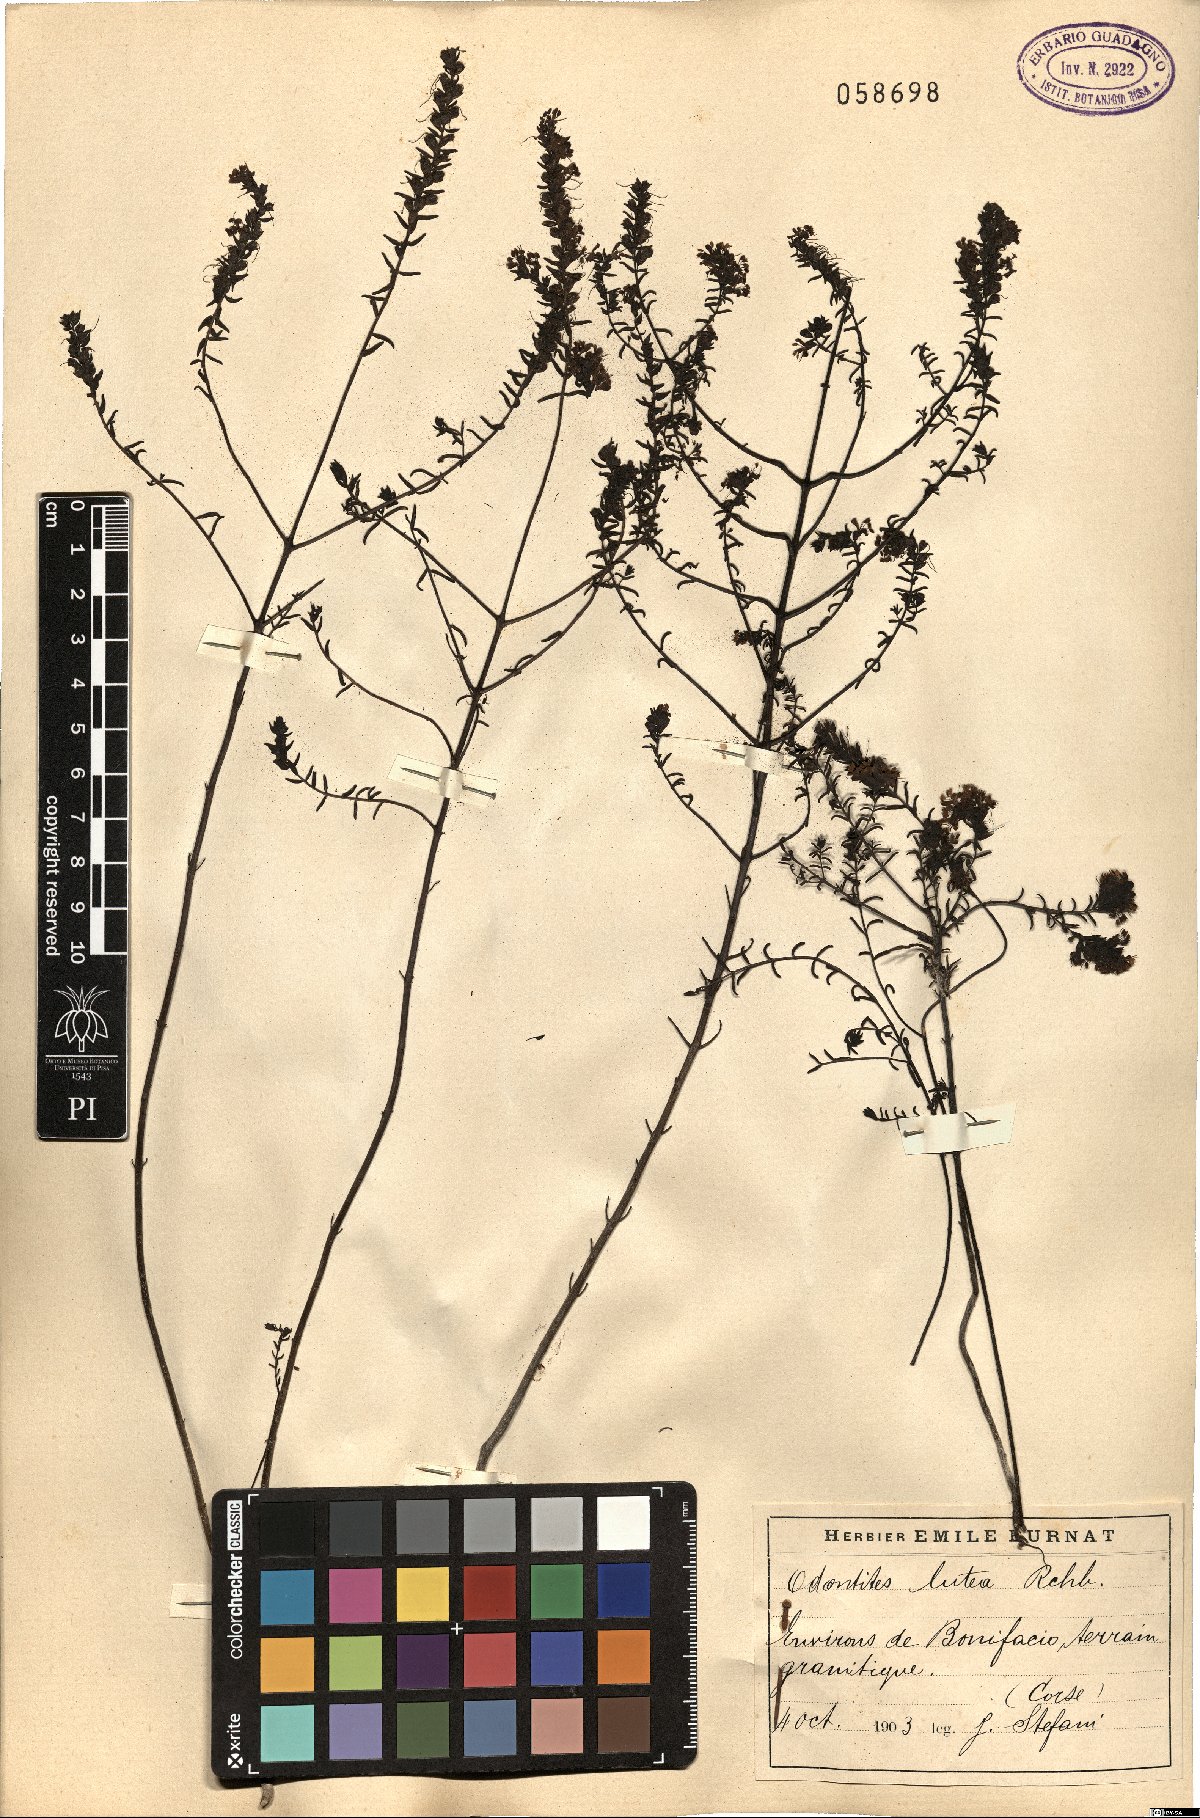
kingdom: Plantae
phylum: Tracheophyta
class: Magnoliopsida
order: Lamiales
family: Orobanchaceae
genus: Odontites
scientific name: Odontites luteus
